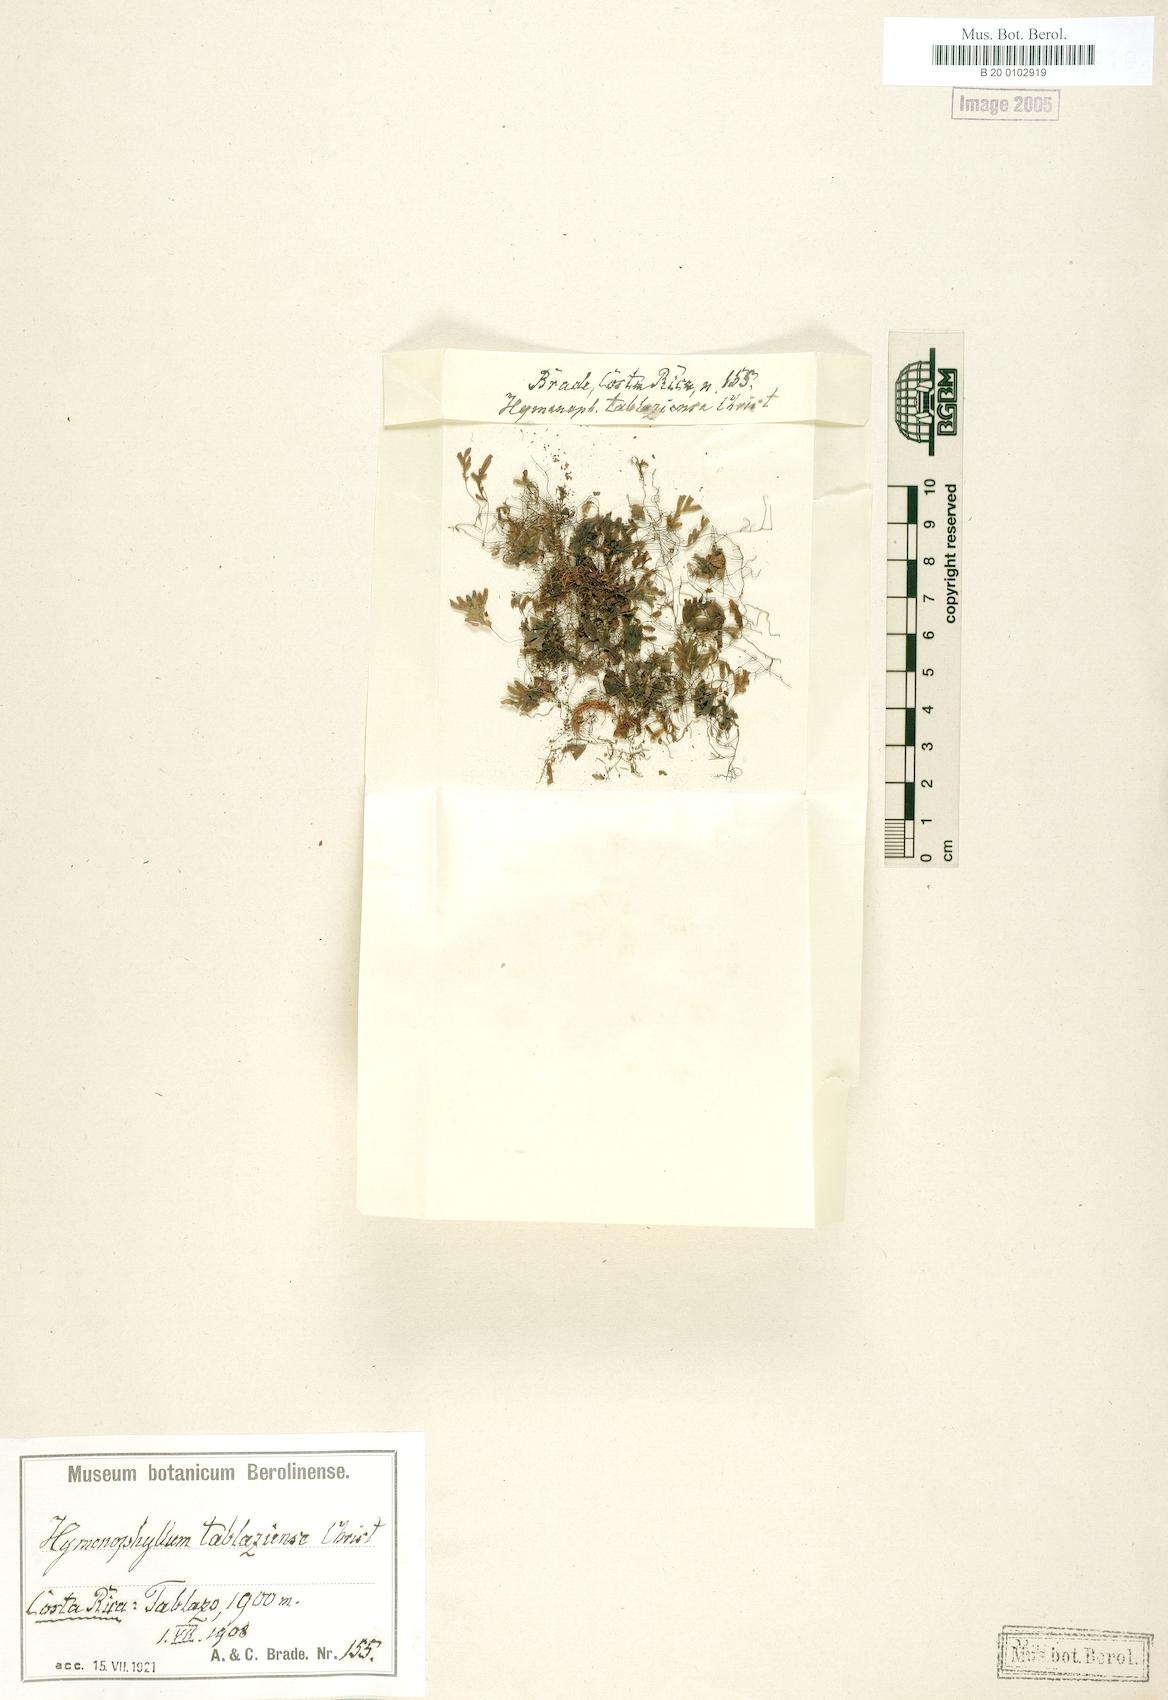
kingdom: Plantae
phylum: Tracheophyta
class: Polypodiopsida
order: Hymenophyllales
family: Hymenophyllaceae
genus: Hymenophyllum
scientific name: Hymenophyllum abruptum
